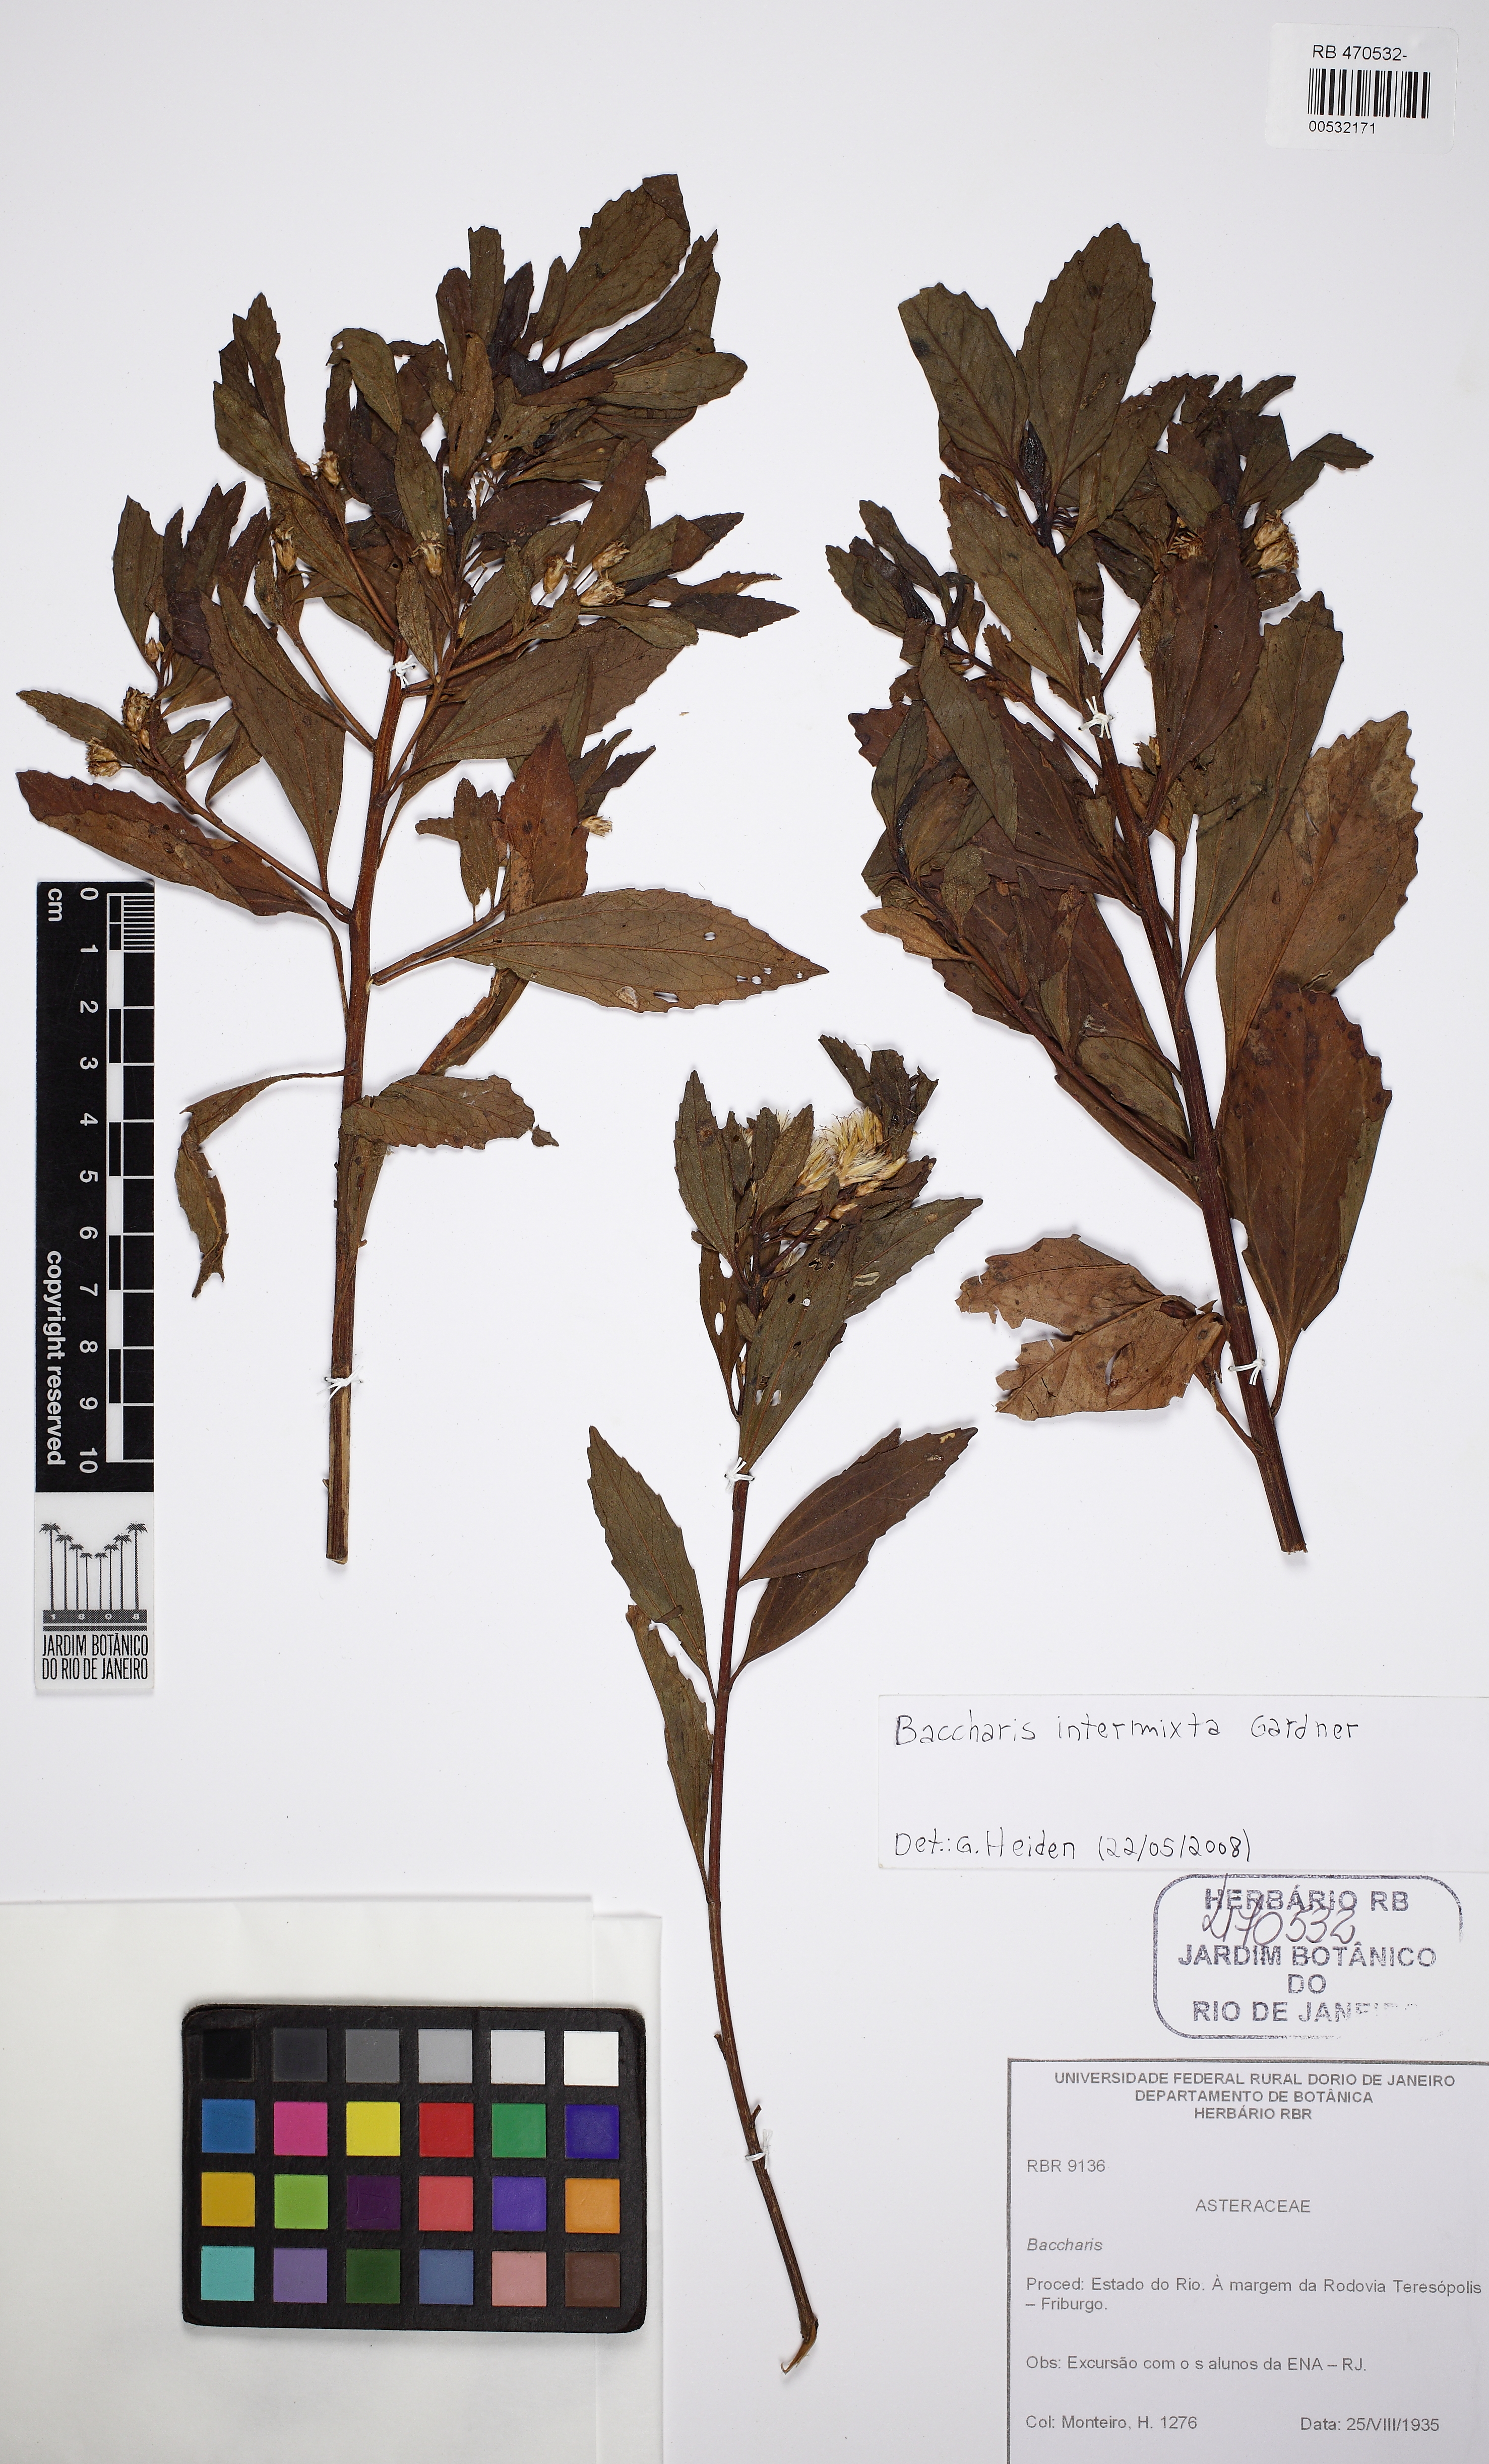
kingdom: Plantae
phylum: Tracheophyta
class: Magnoliopsida
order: Asterales
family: Asteraceae
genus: Baccharis
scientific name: Baccharis intermixta
